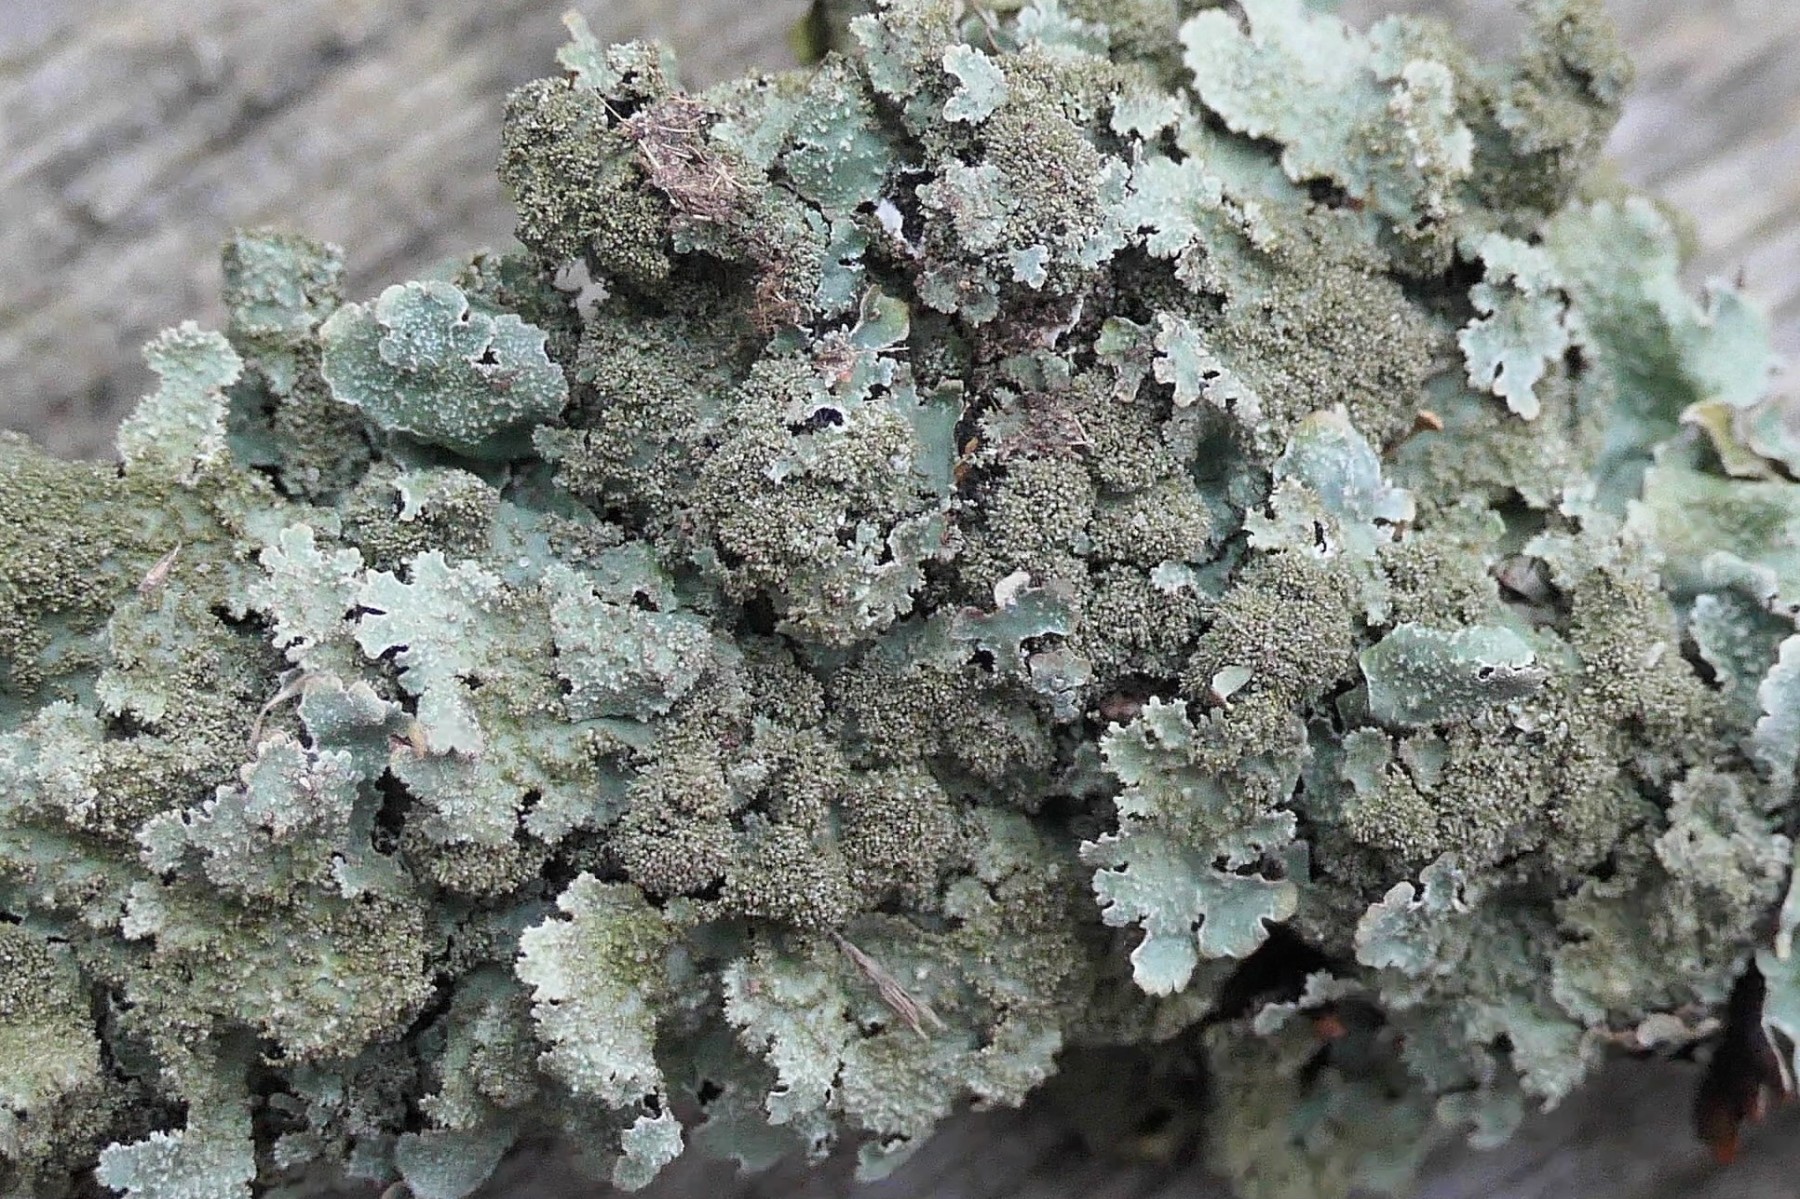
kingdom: Fungi
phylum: Ascomycota
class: Lecanoromycetes
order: Lecanorales
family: Parmeliaceae
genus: Parmelia
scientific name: Parmelia saxatilis
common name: farve-skållav
